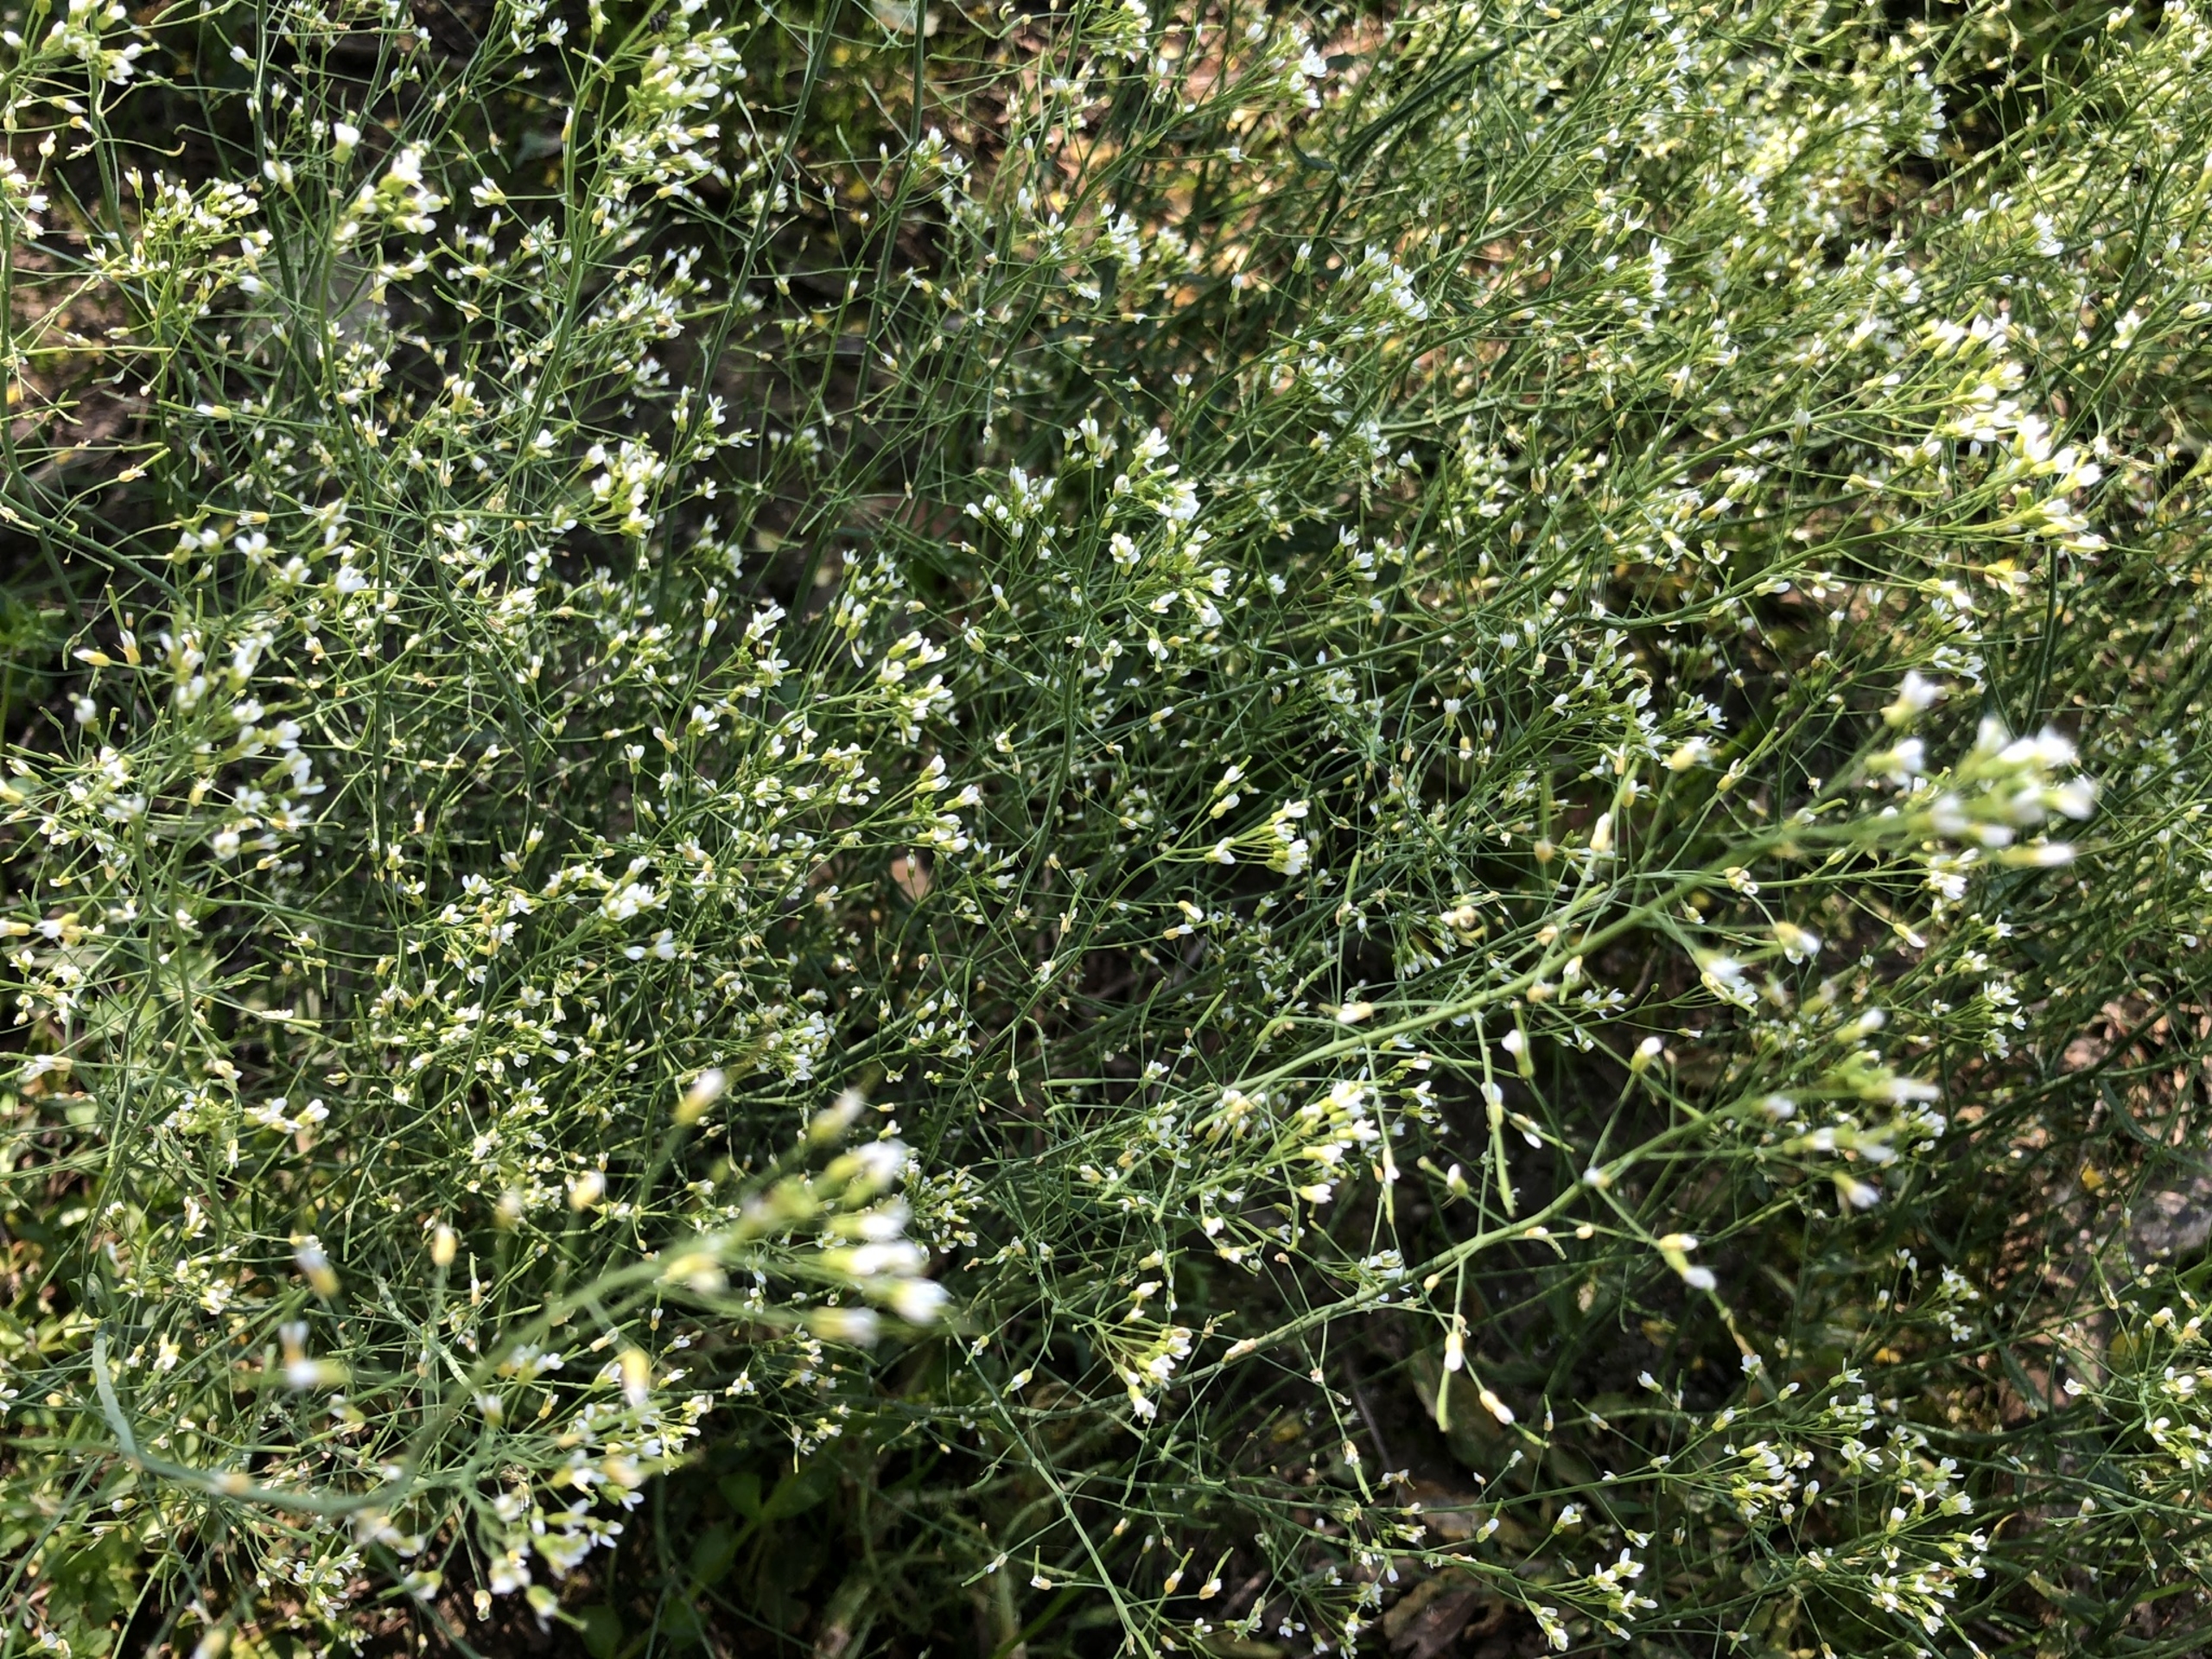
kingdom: Plantae
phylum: Tracheophyta
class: Magnoliopsida
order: Brassicales
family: Brassicaceae
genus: Arabidopsis
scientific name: Arabidopsis thaliana
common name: Almindelig gåsemad
